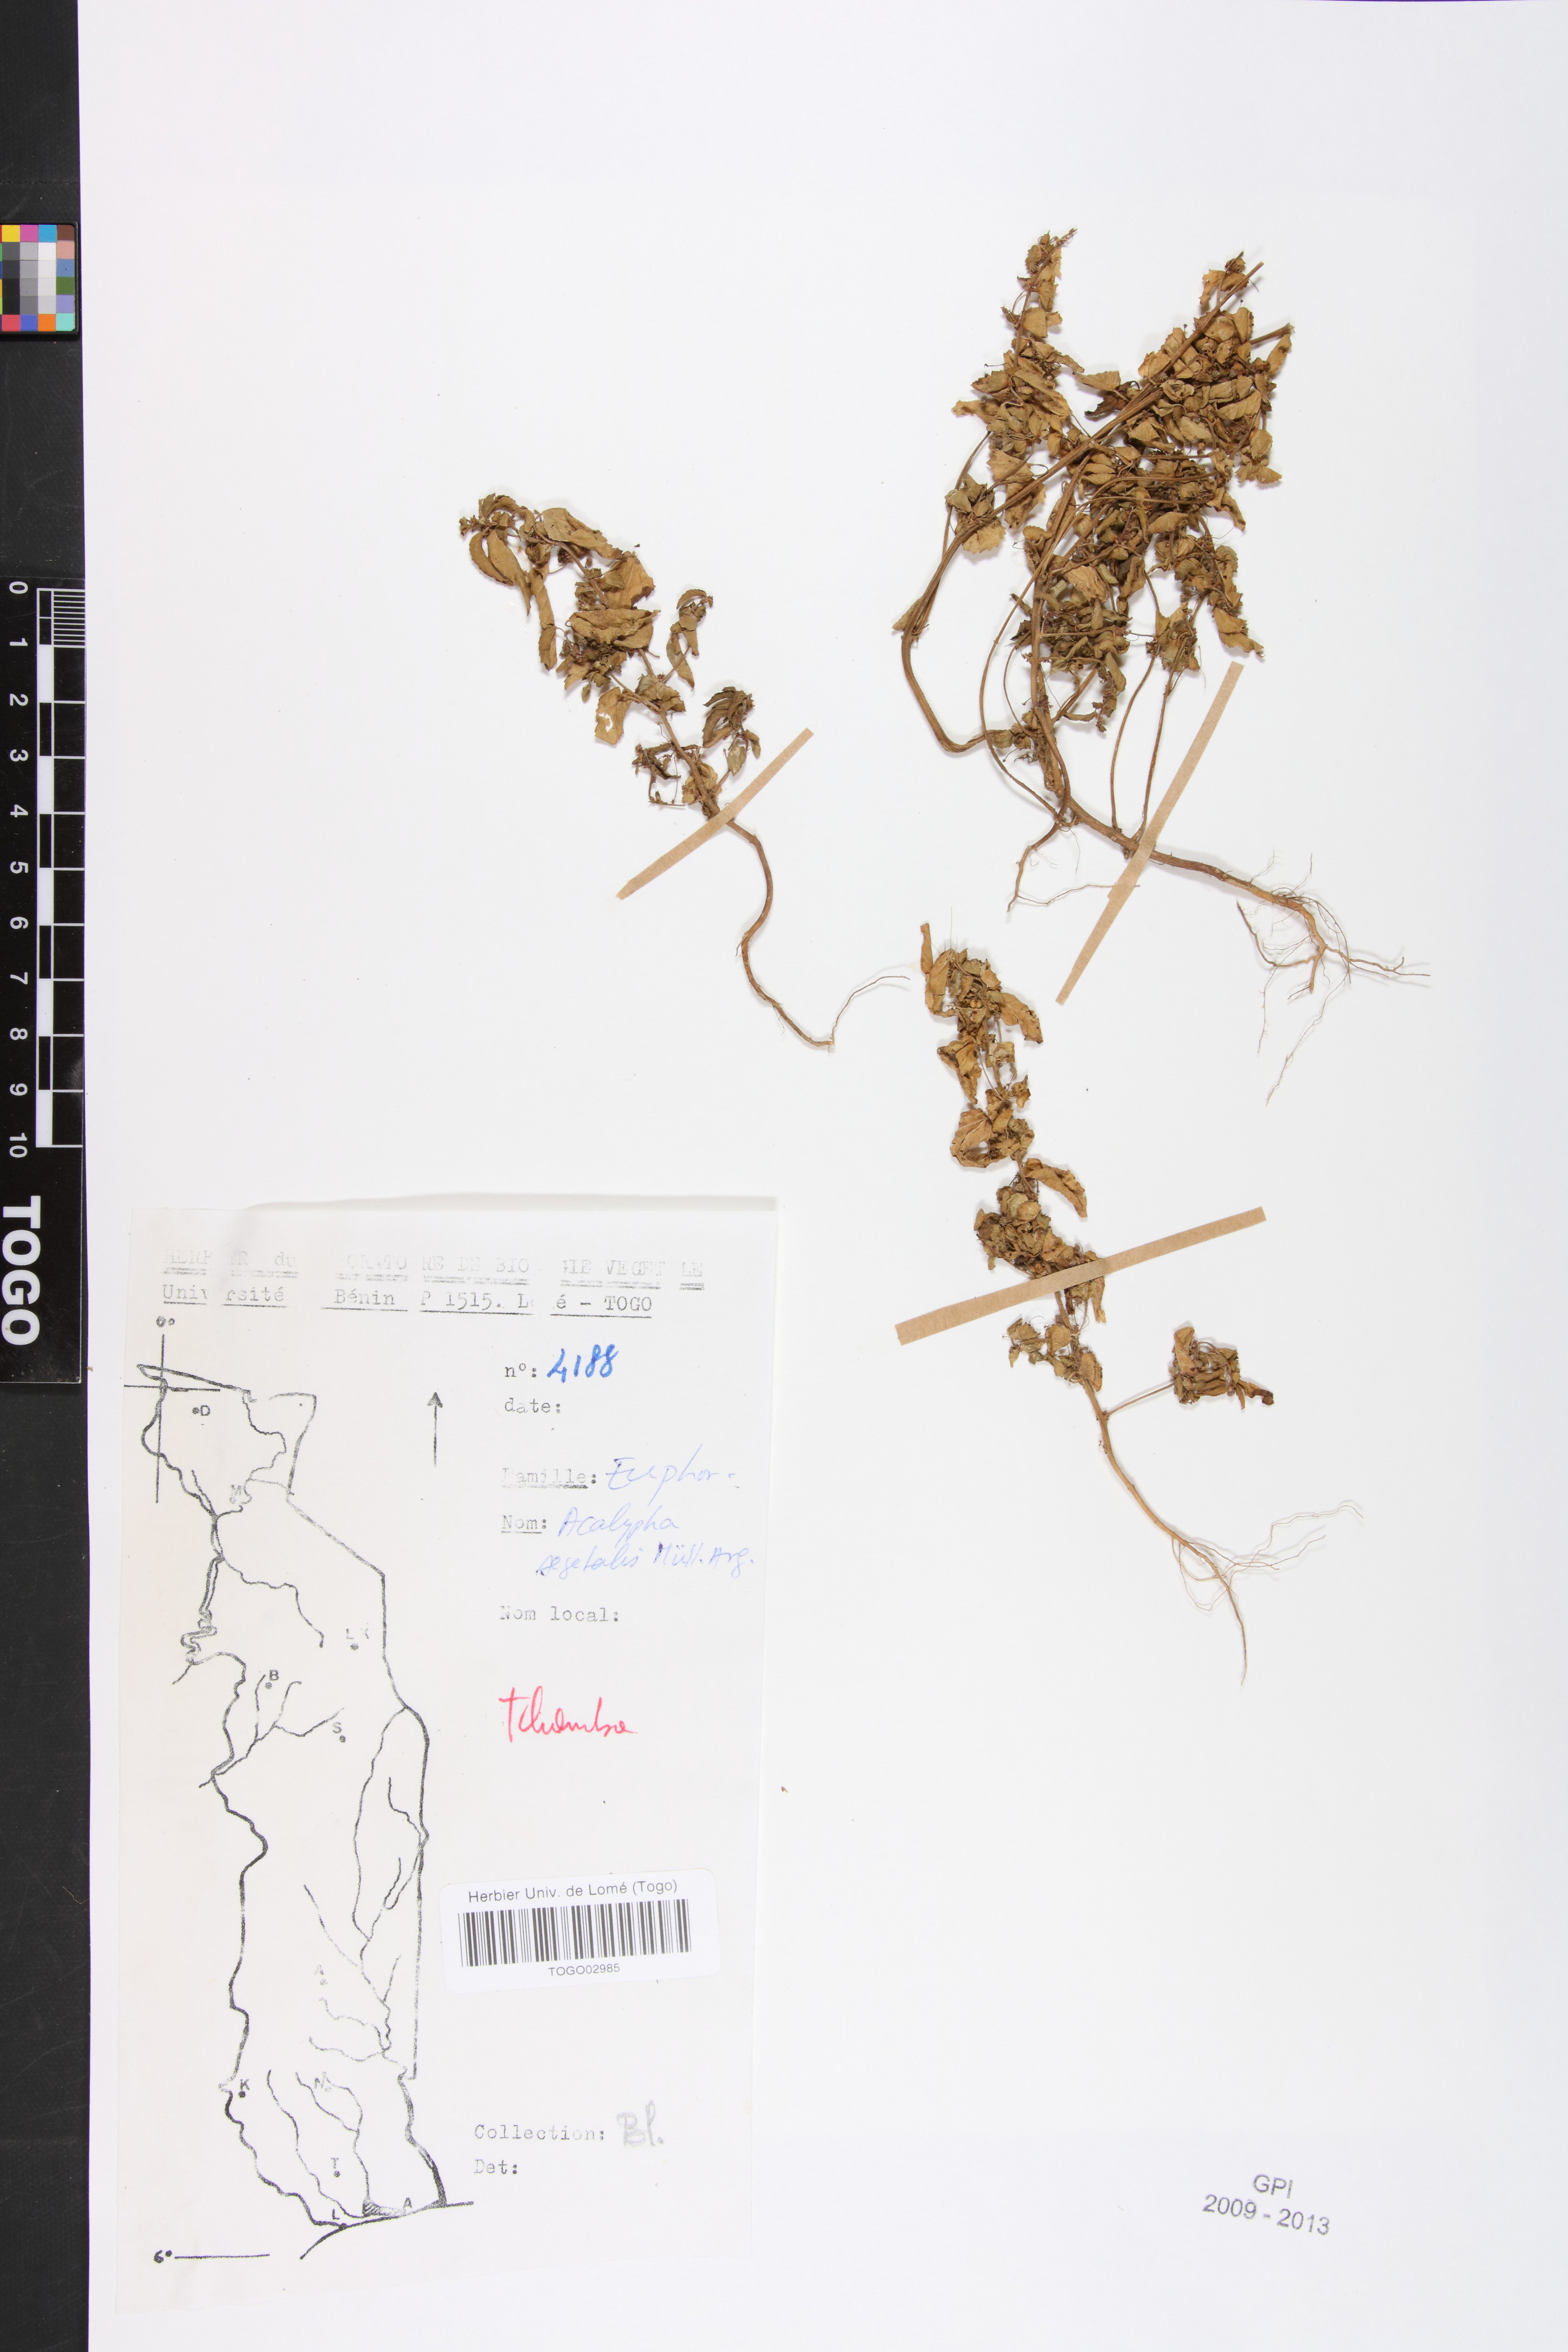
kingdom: Plantae
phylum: Tracheophyta
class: Magnoliopsida
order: Malpighiales
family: Euphorbiaceae
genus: Acalypha
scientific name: Acalypha segetalis
